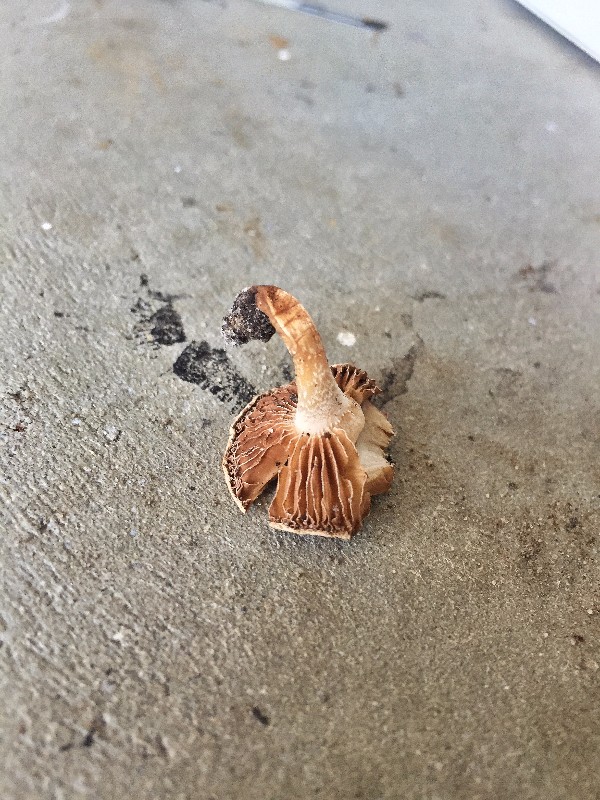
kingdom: Fungi
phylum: Basidiomycota
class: Agaricomycetes
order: Agaricales
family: Hymenogastraceae
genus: Hebeloma
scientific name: Hebeloma
